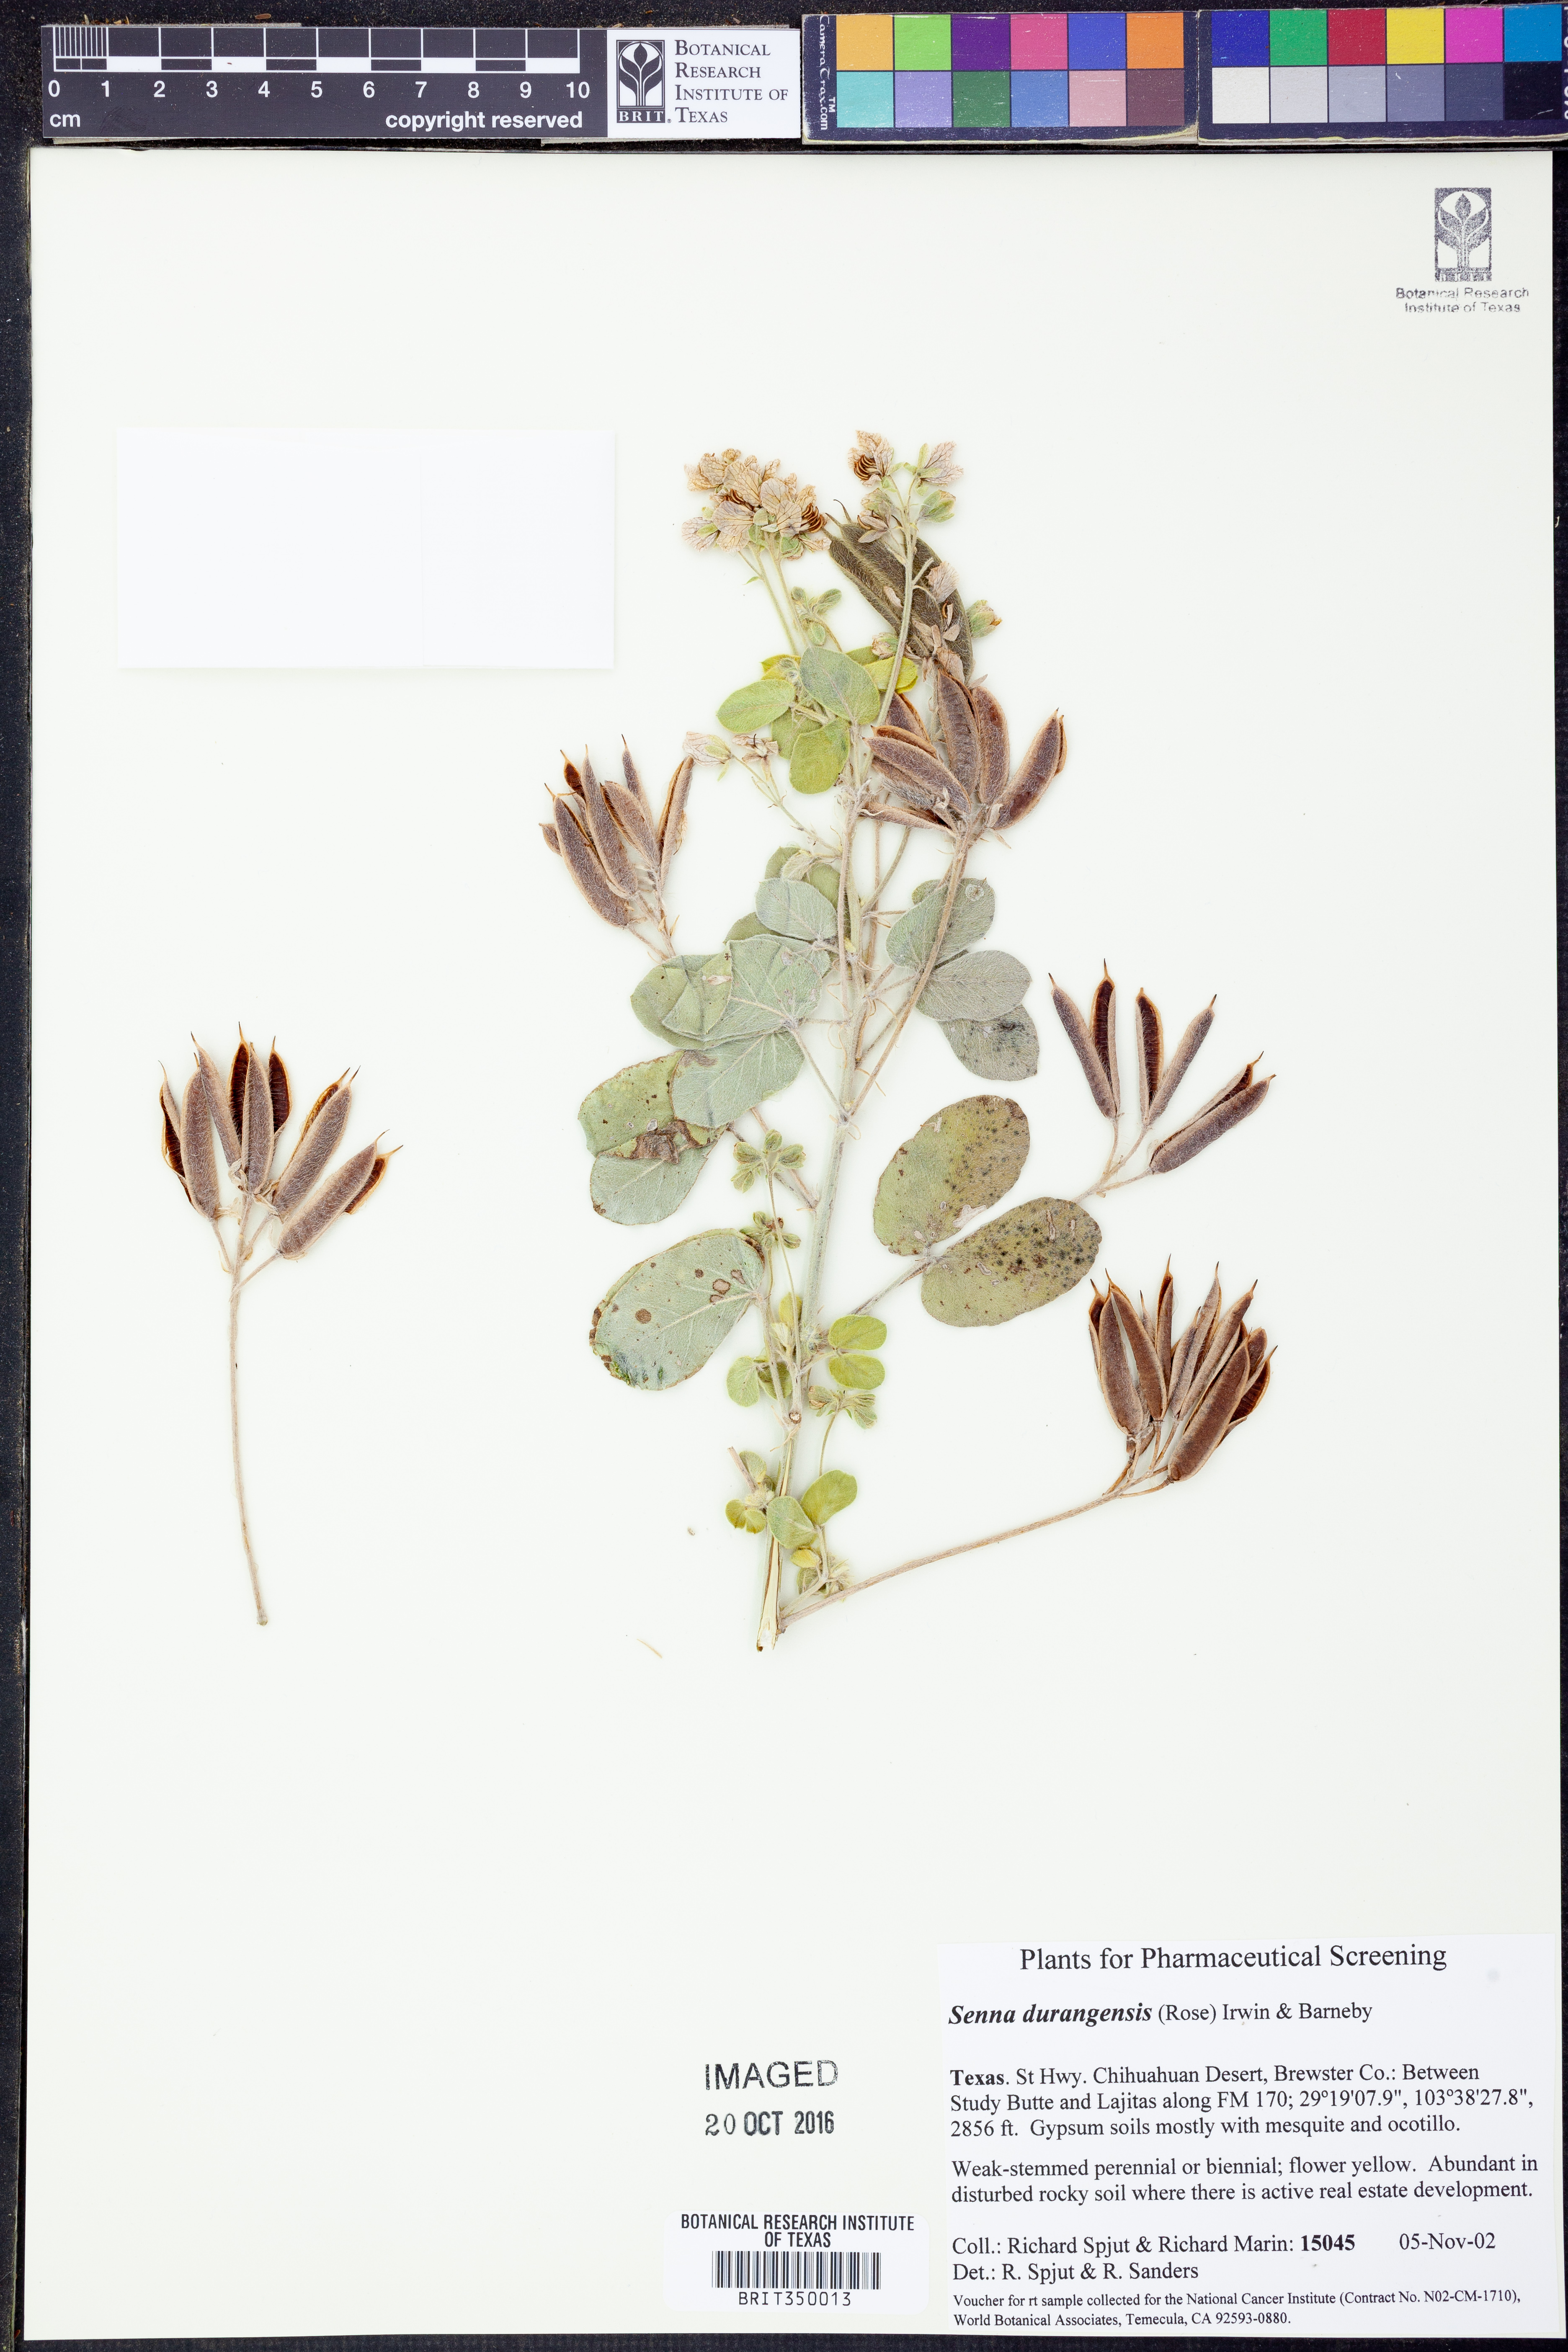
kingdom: Plantae
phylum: Tracheophyta
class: Magnoliopsida
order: Fabales
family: Fabaceae
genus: Senna
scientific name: Senna durangensis
